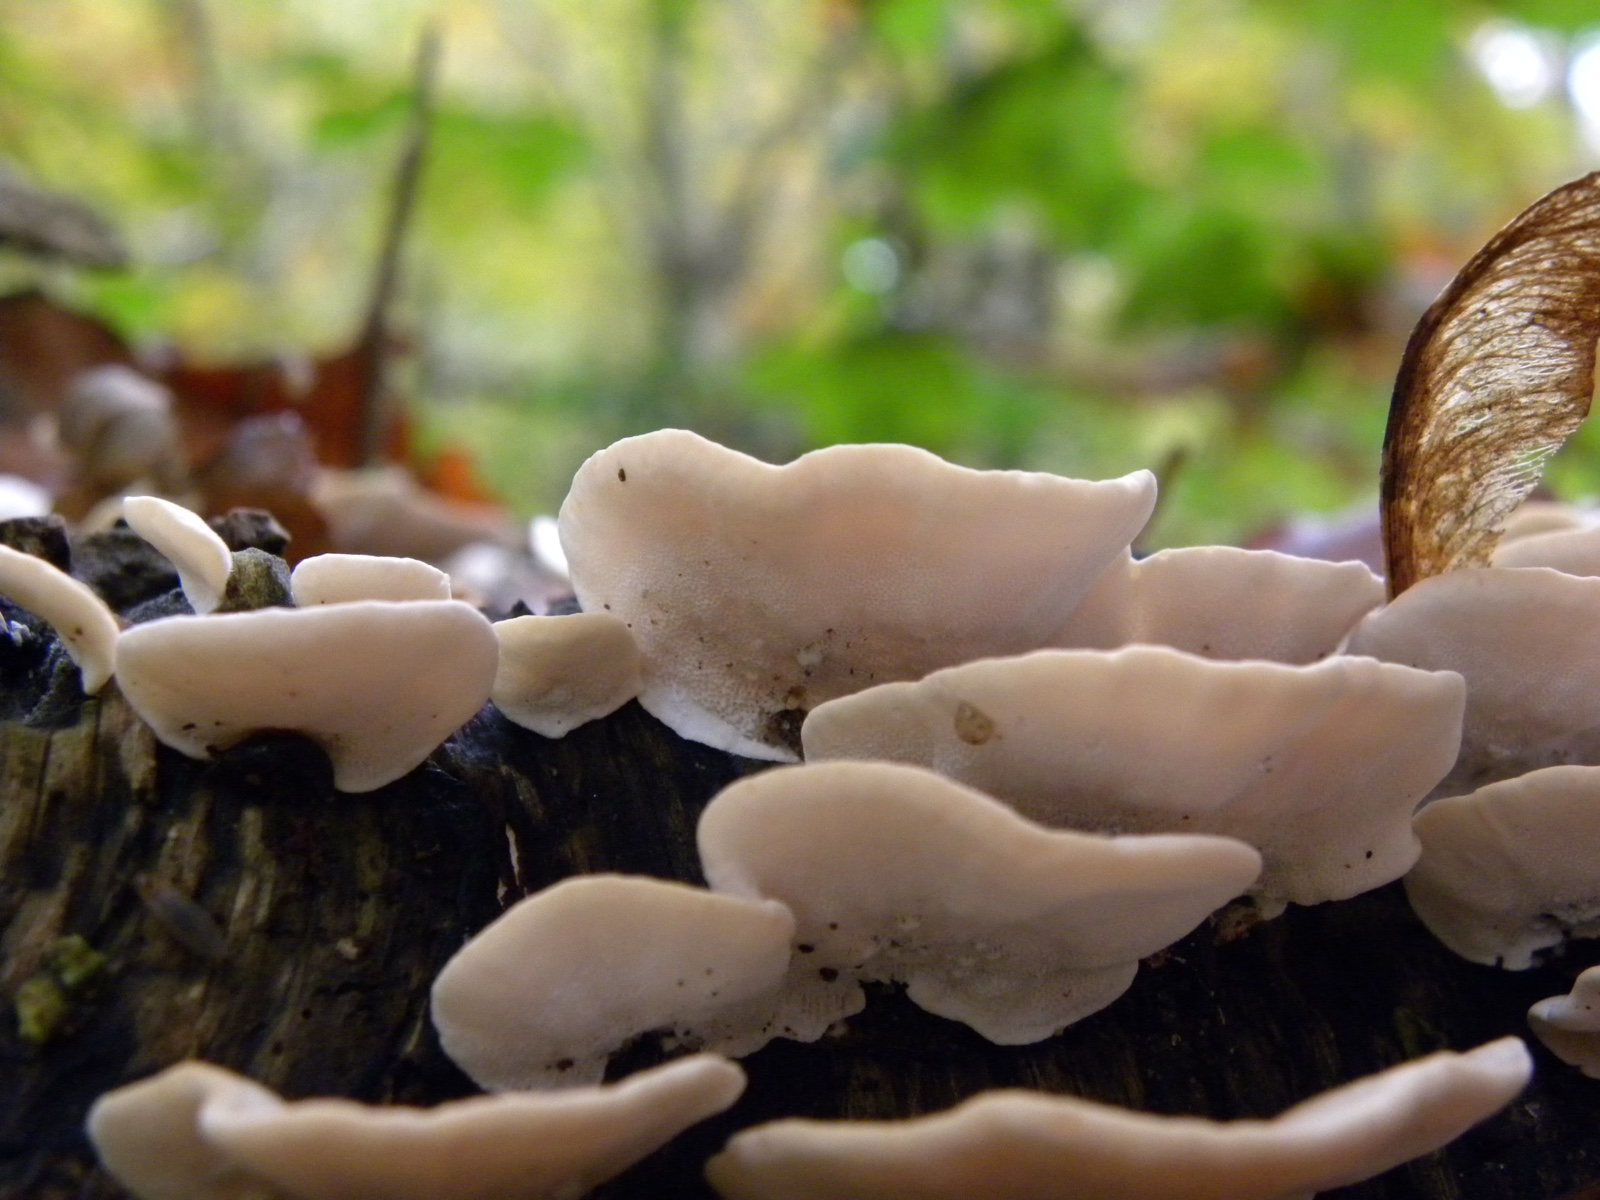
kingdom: Fungi
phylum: Basidiomycota
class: Agaricomycetes
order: Polyporales
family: Polyporaceae
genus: Trametes
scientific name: Trametes versicolor
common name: broget læderporesvamp
